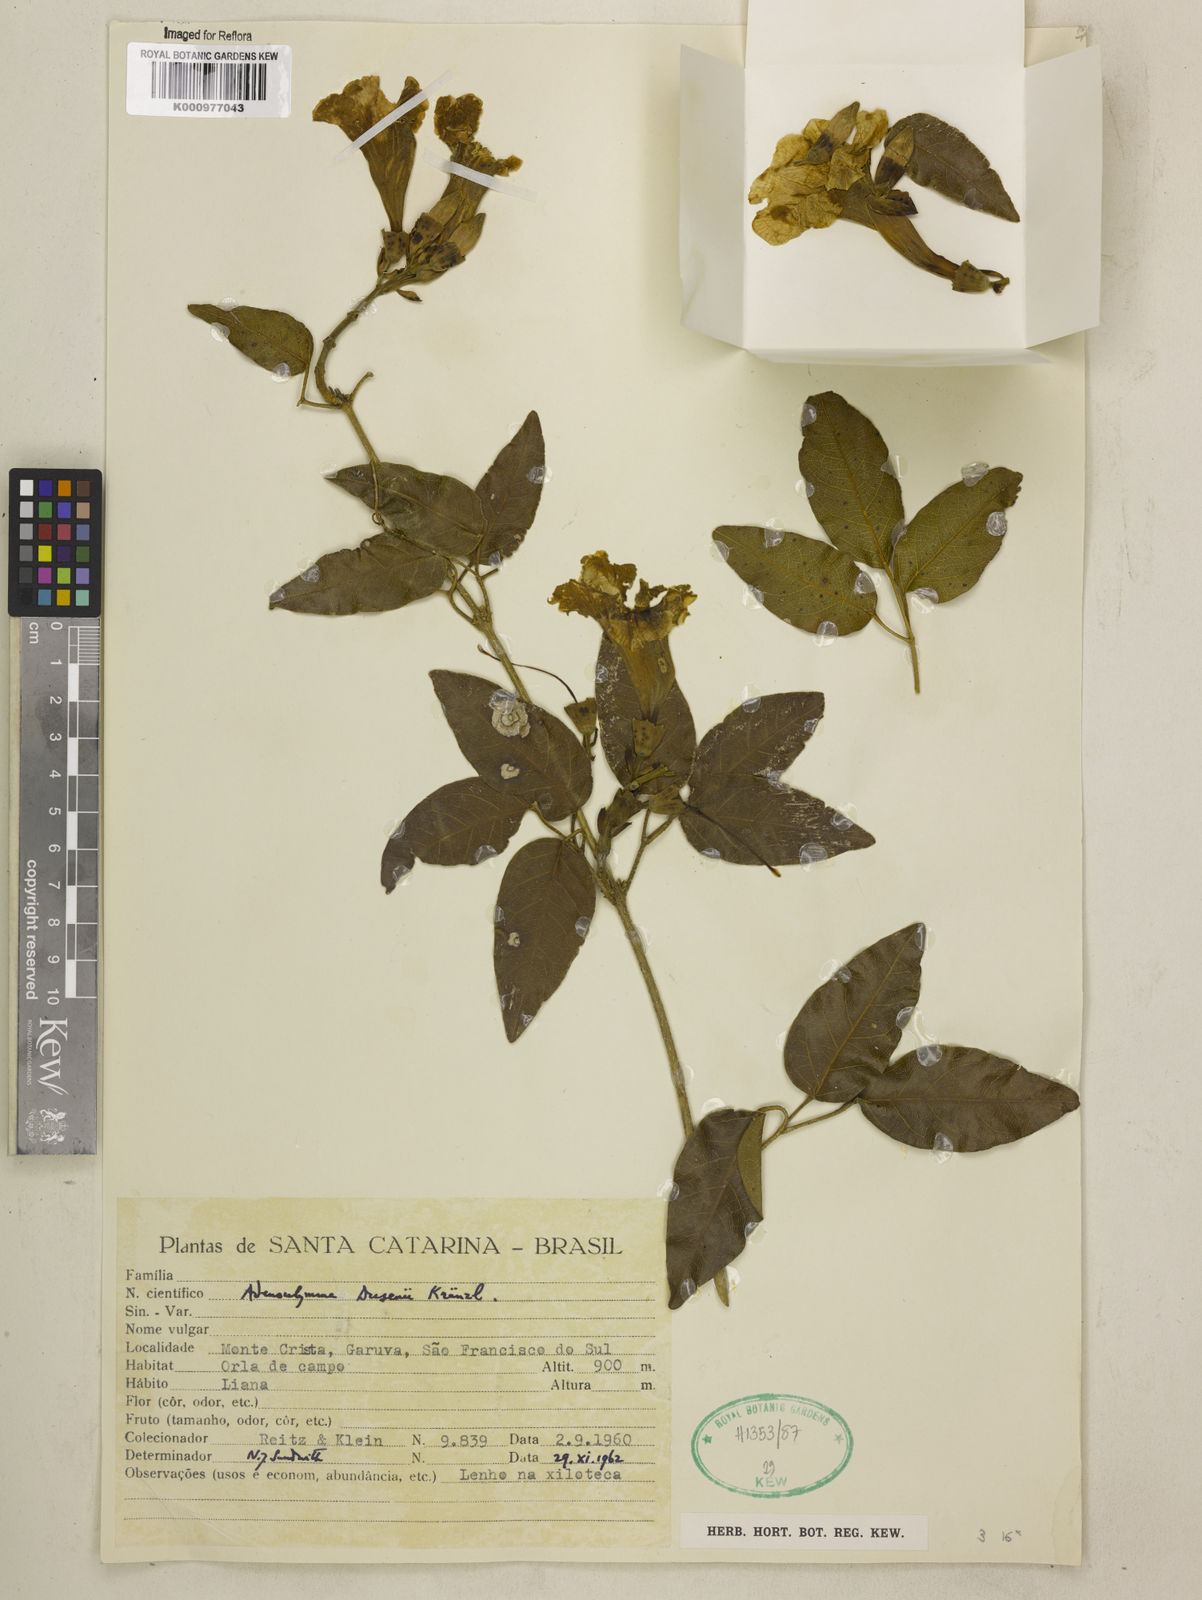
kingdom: Plantae
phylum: Tracheophyta
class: Magnoliopsida
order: Lamiales
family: Bignoniaceae
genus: Adenocalymma
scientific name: Adenocalymma dusenii
